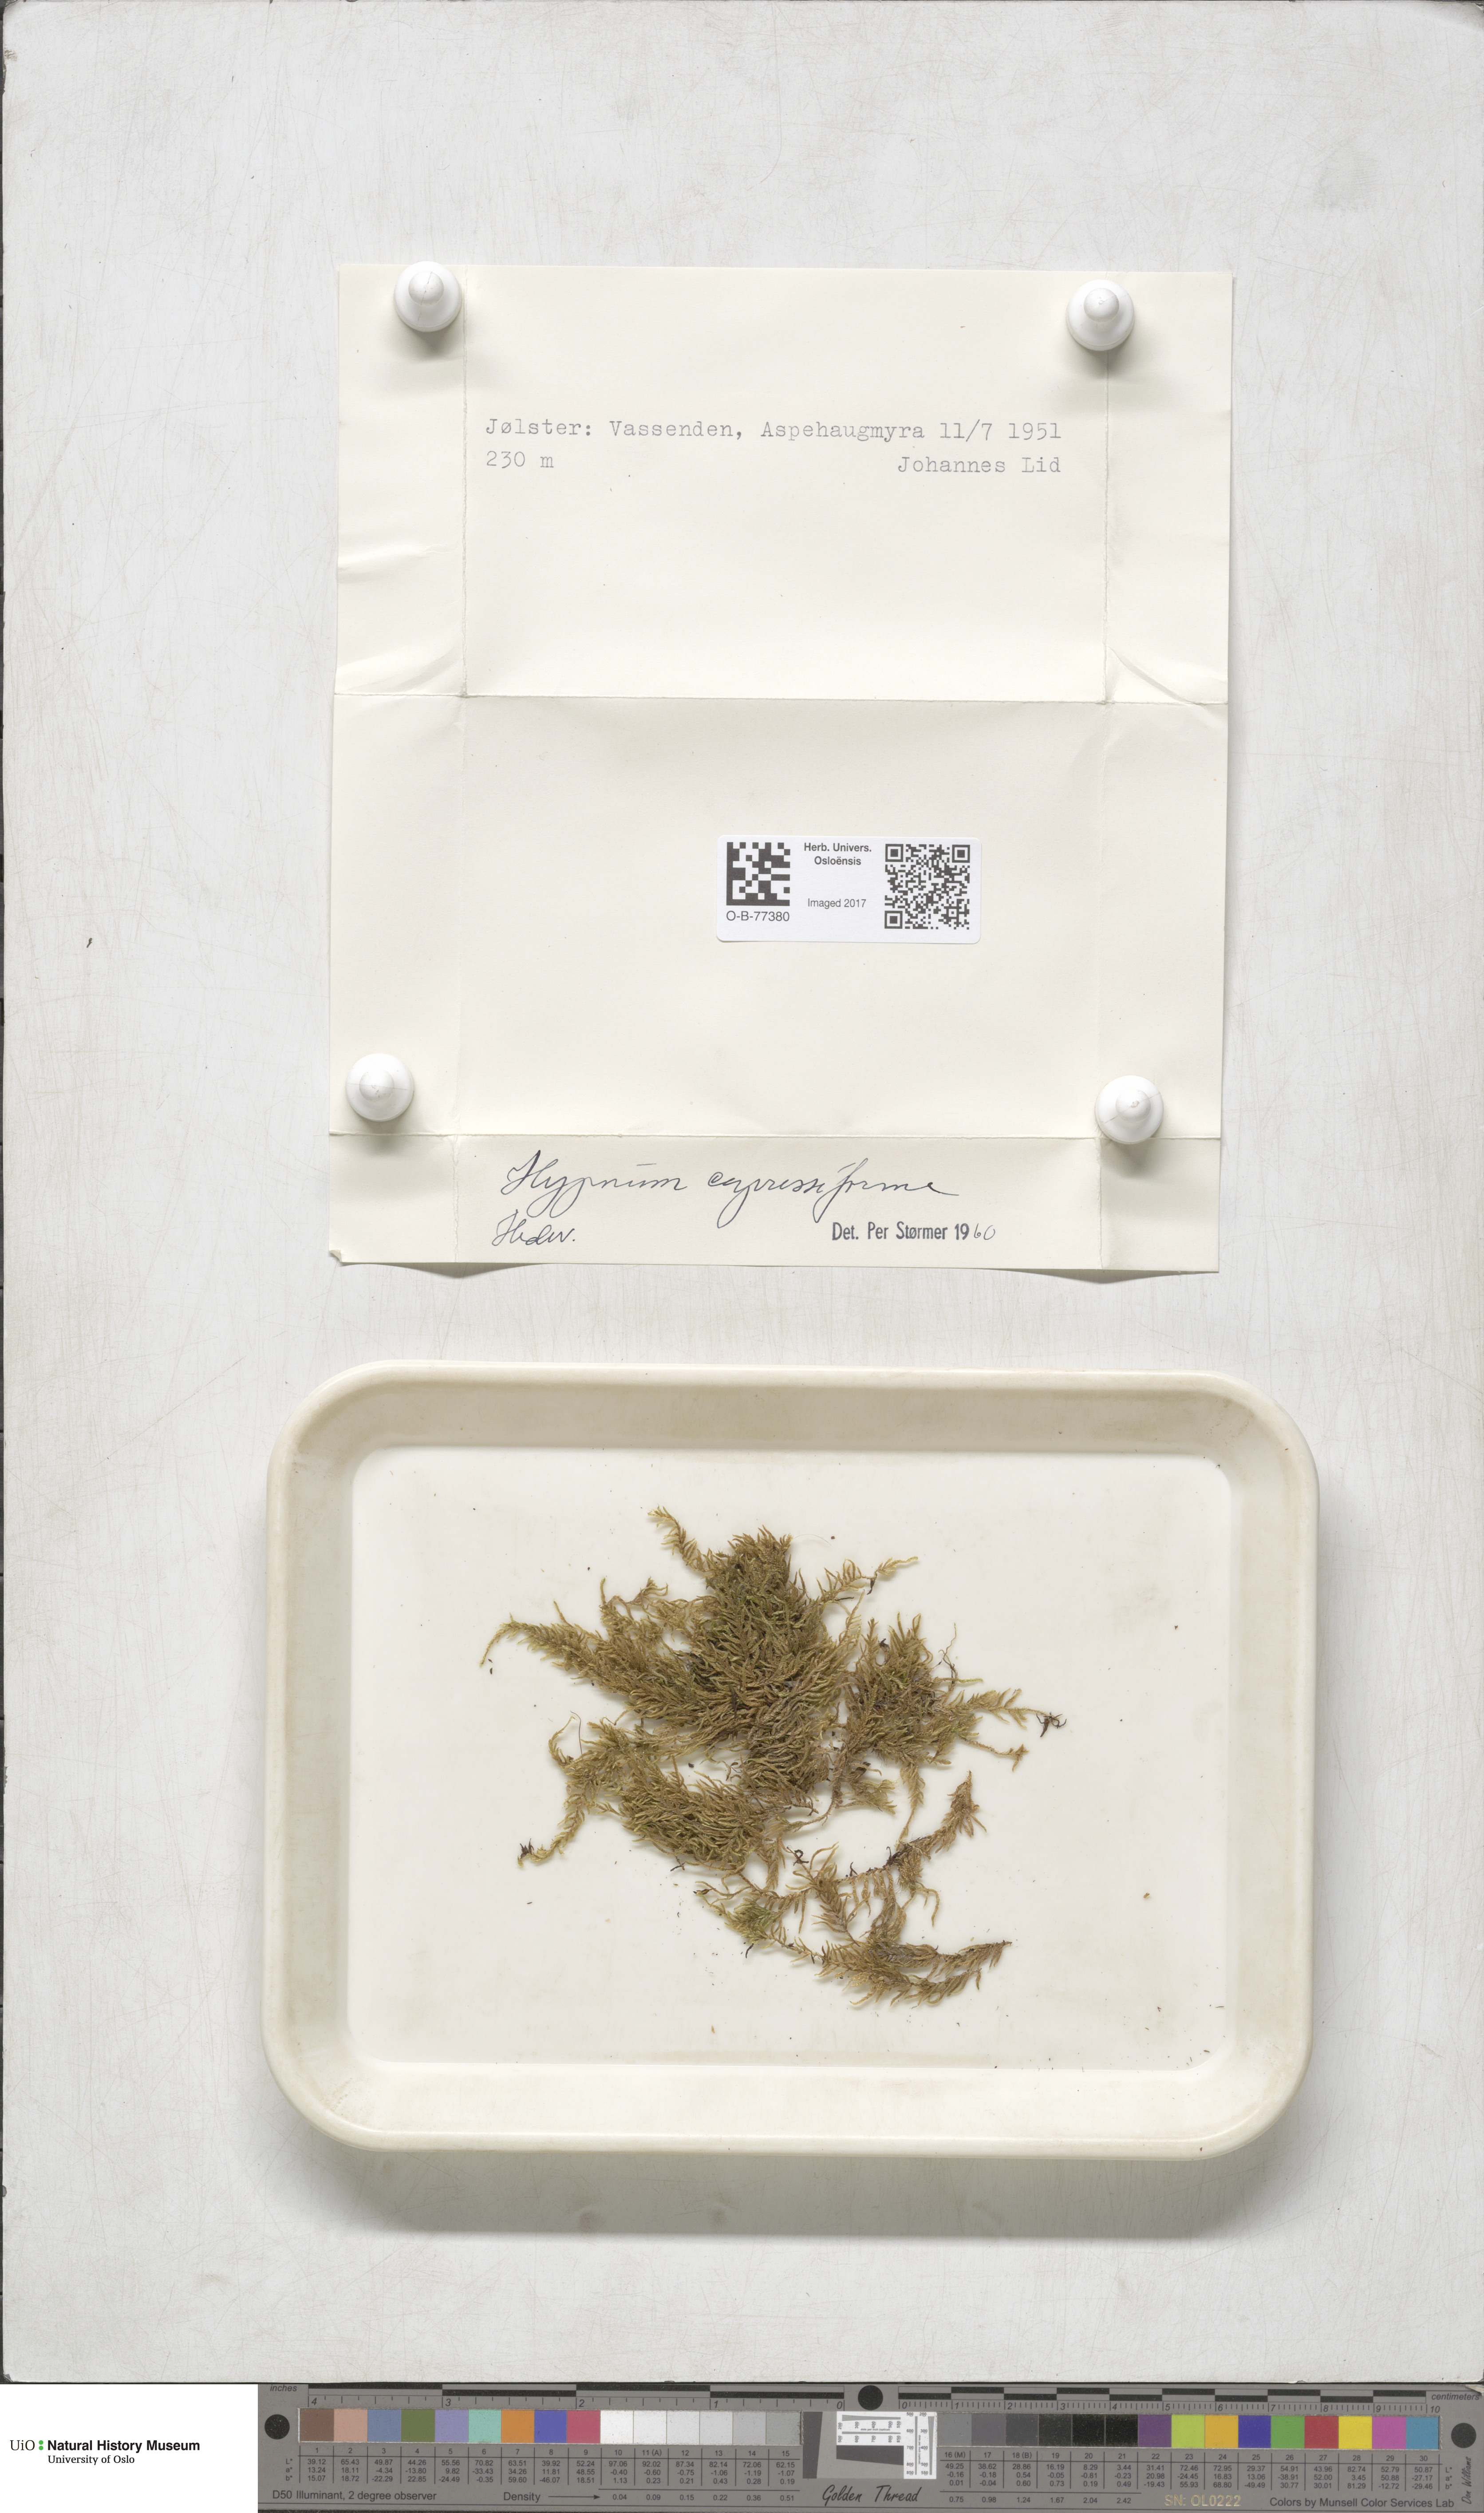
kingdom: Plantae
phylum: Bryophyta
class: Bryopsida
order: Hypnales
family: Hypnaceae
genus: Hypnum
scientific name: Hypnum cupressiforme
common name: Cypress-leaved plait-moss
